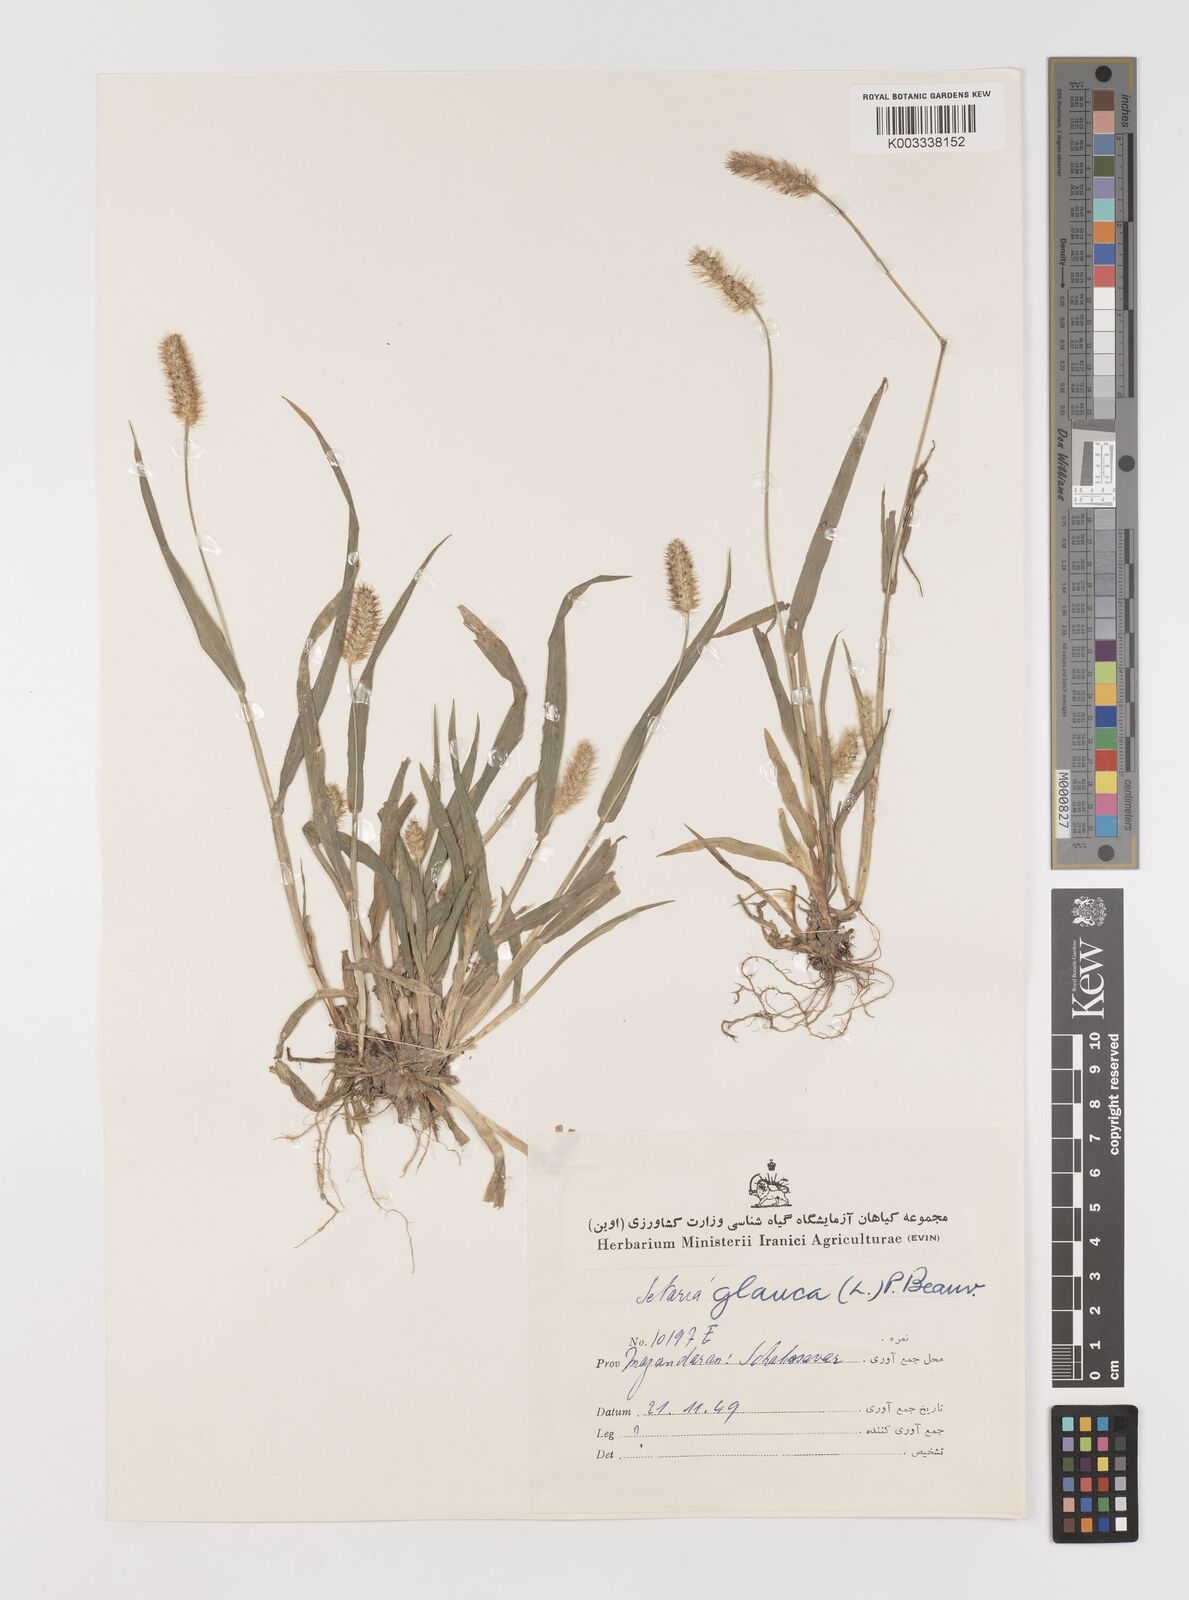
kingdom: Plantae
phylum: Tracheophyta
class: Liliopsida
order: Poales
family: Poaceae
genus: Setaria
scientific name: Setaria pumila
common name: Yellow bristle-grass
